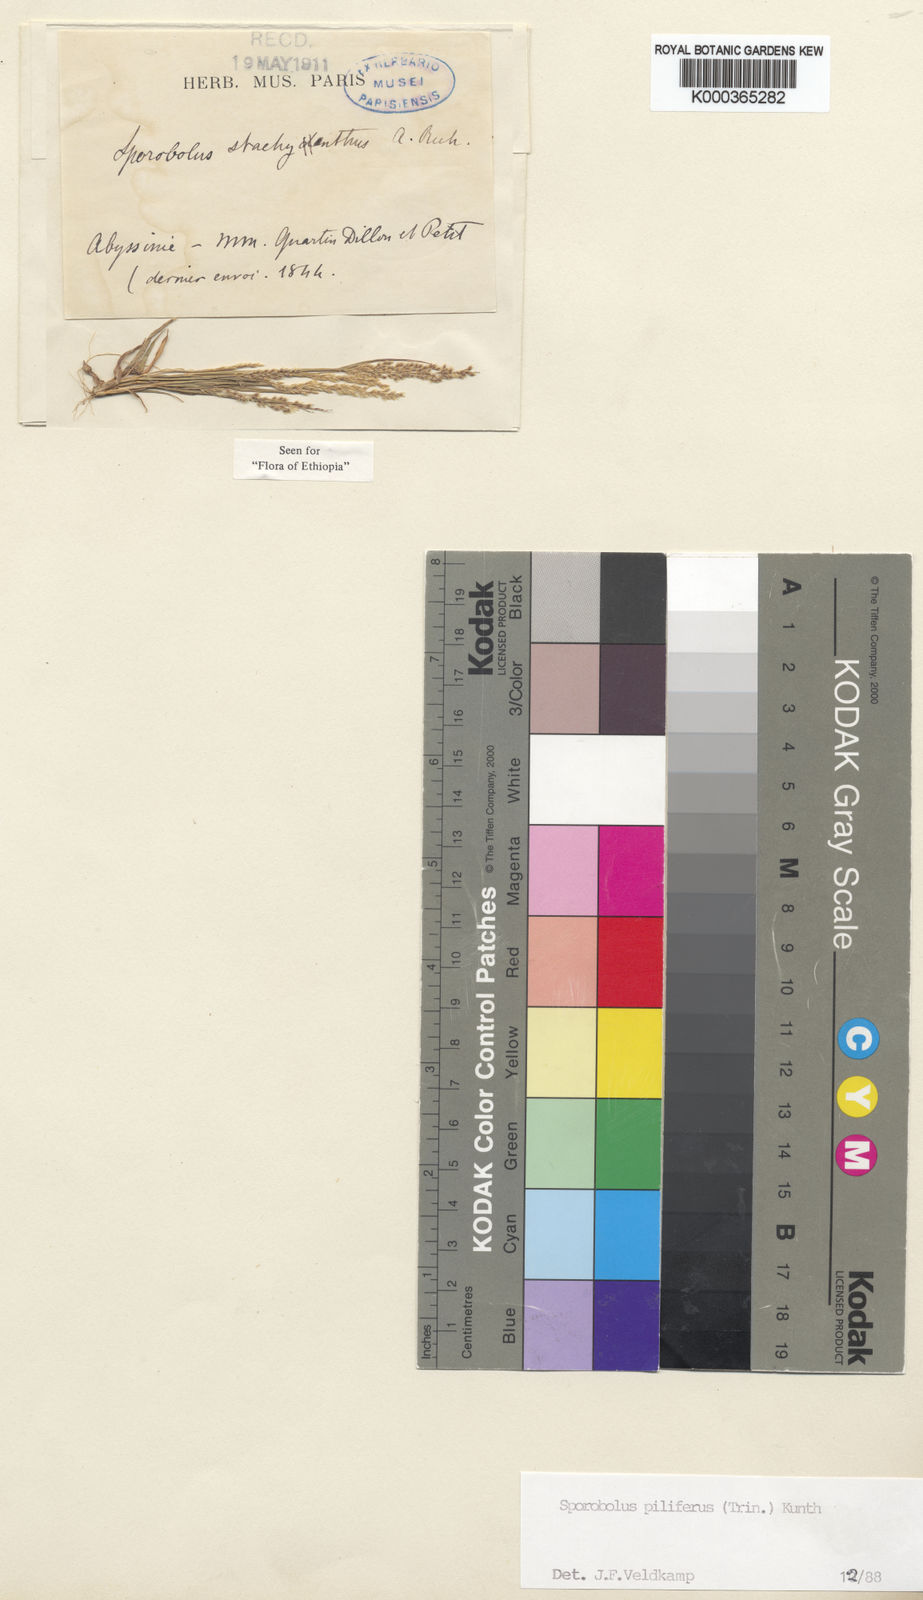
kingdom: Plantae
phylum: Tracheophyta
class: Liliopsida
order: Poales
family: Poaceae
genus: Sporobolus
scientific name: Sporobolus
